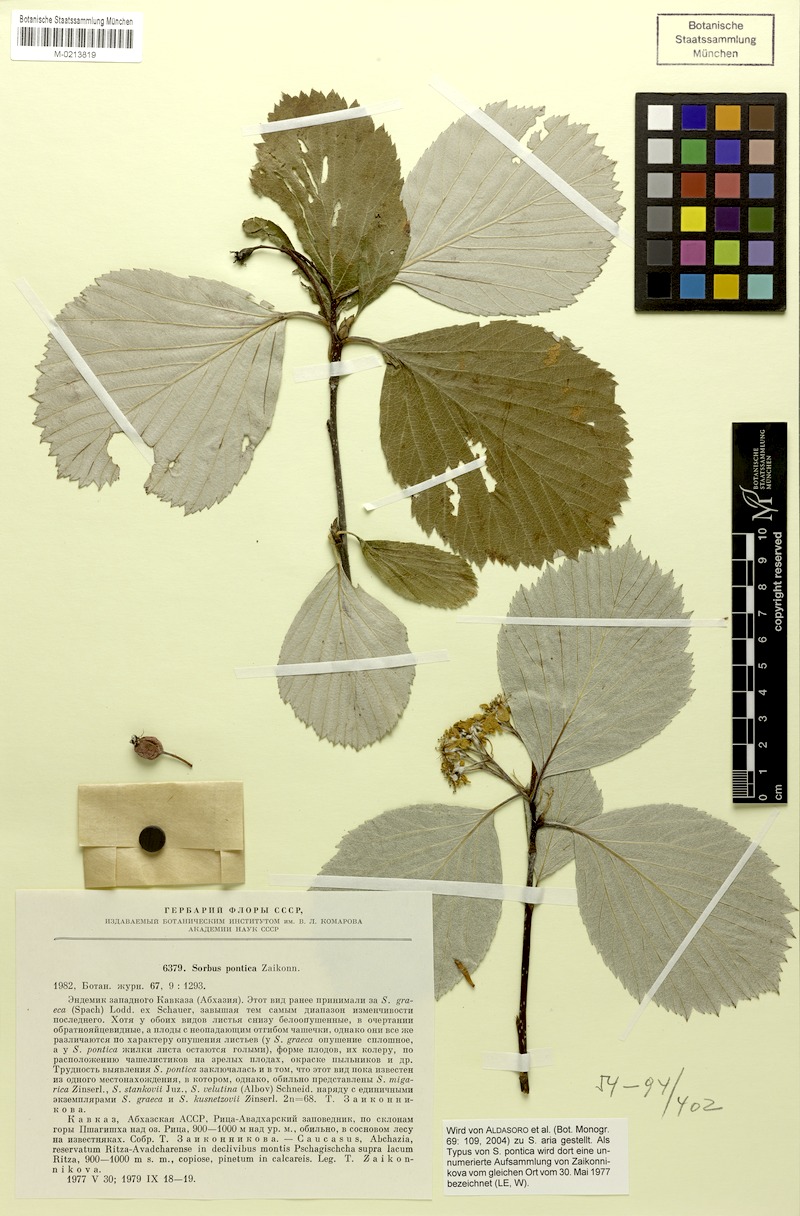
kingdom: Plantae
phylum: Tracheophyta
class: Magnoliopsida
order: Rosales
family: Rosaceae
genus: Sorbus
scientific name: Sorbus pontica
